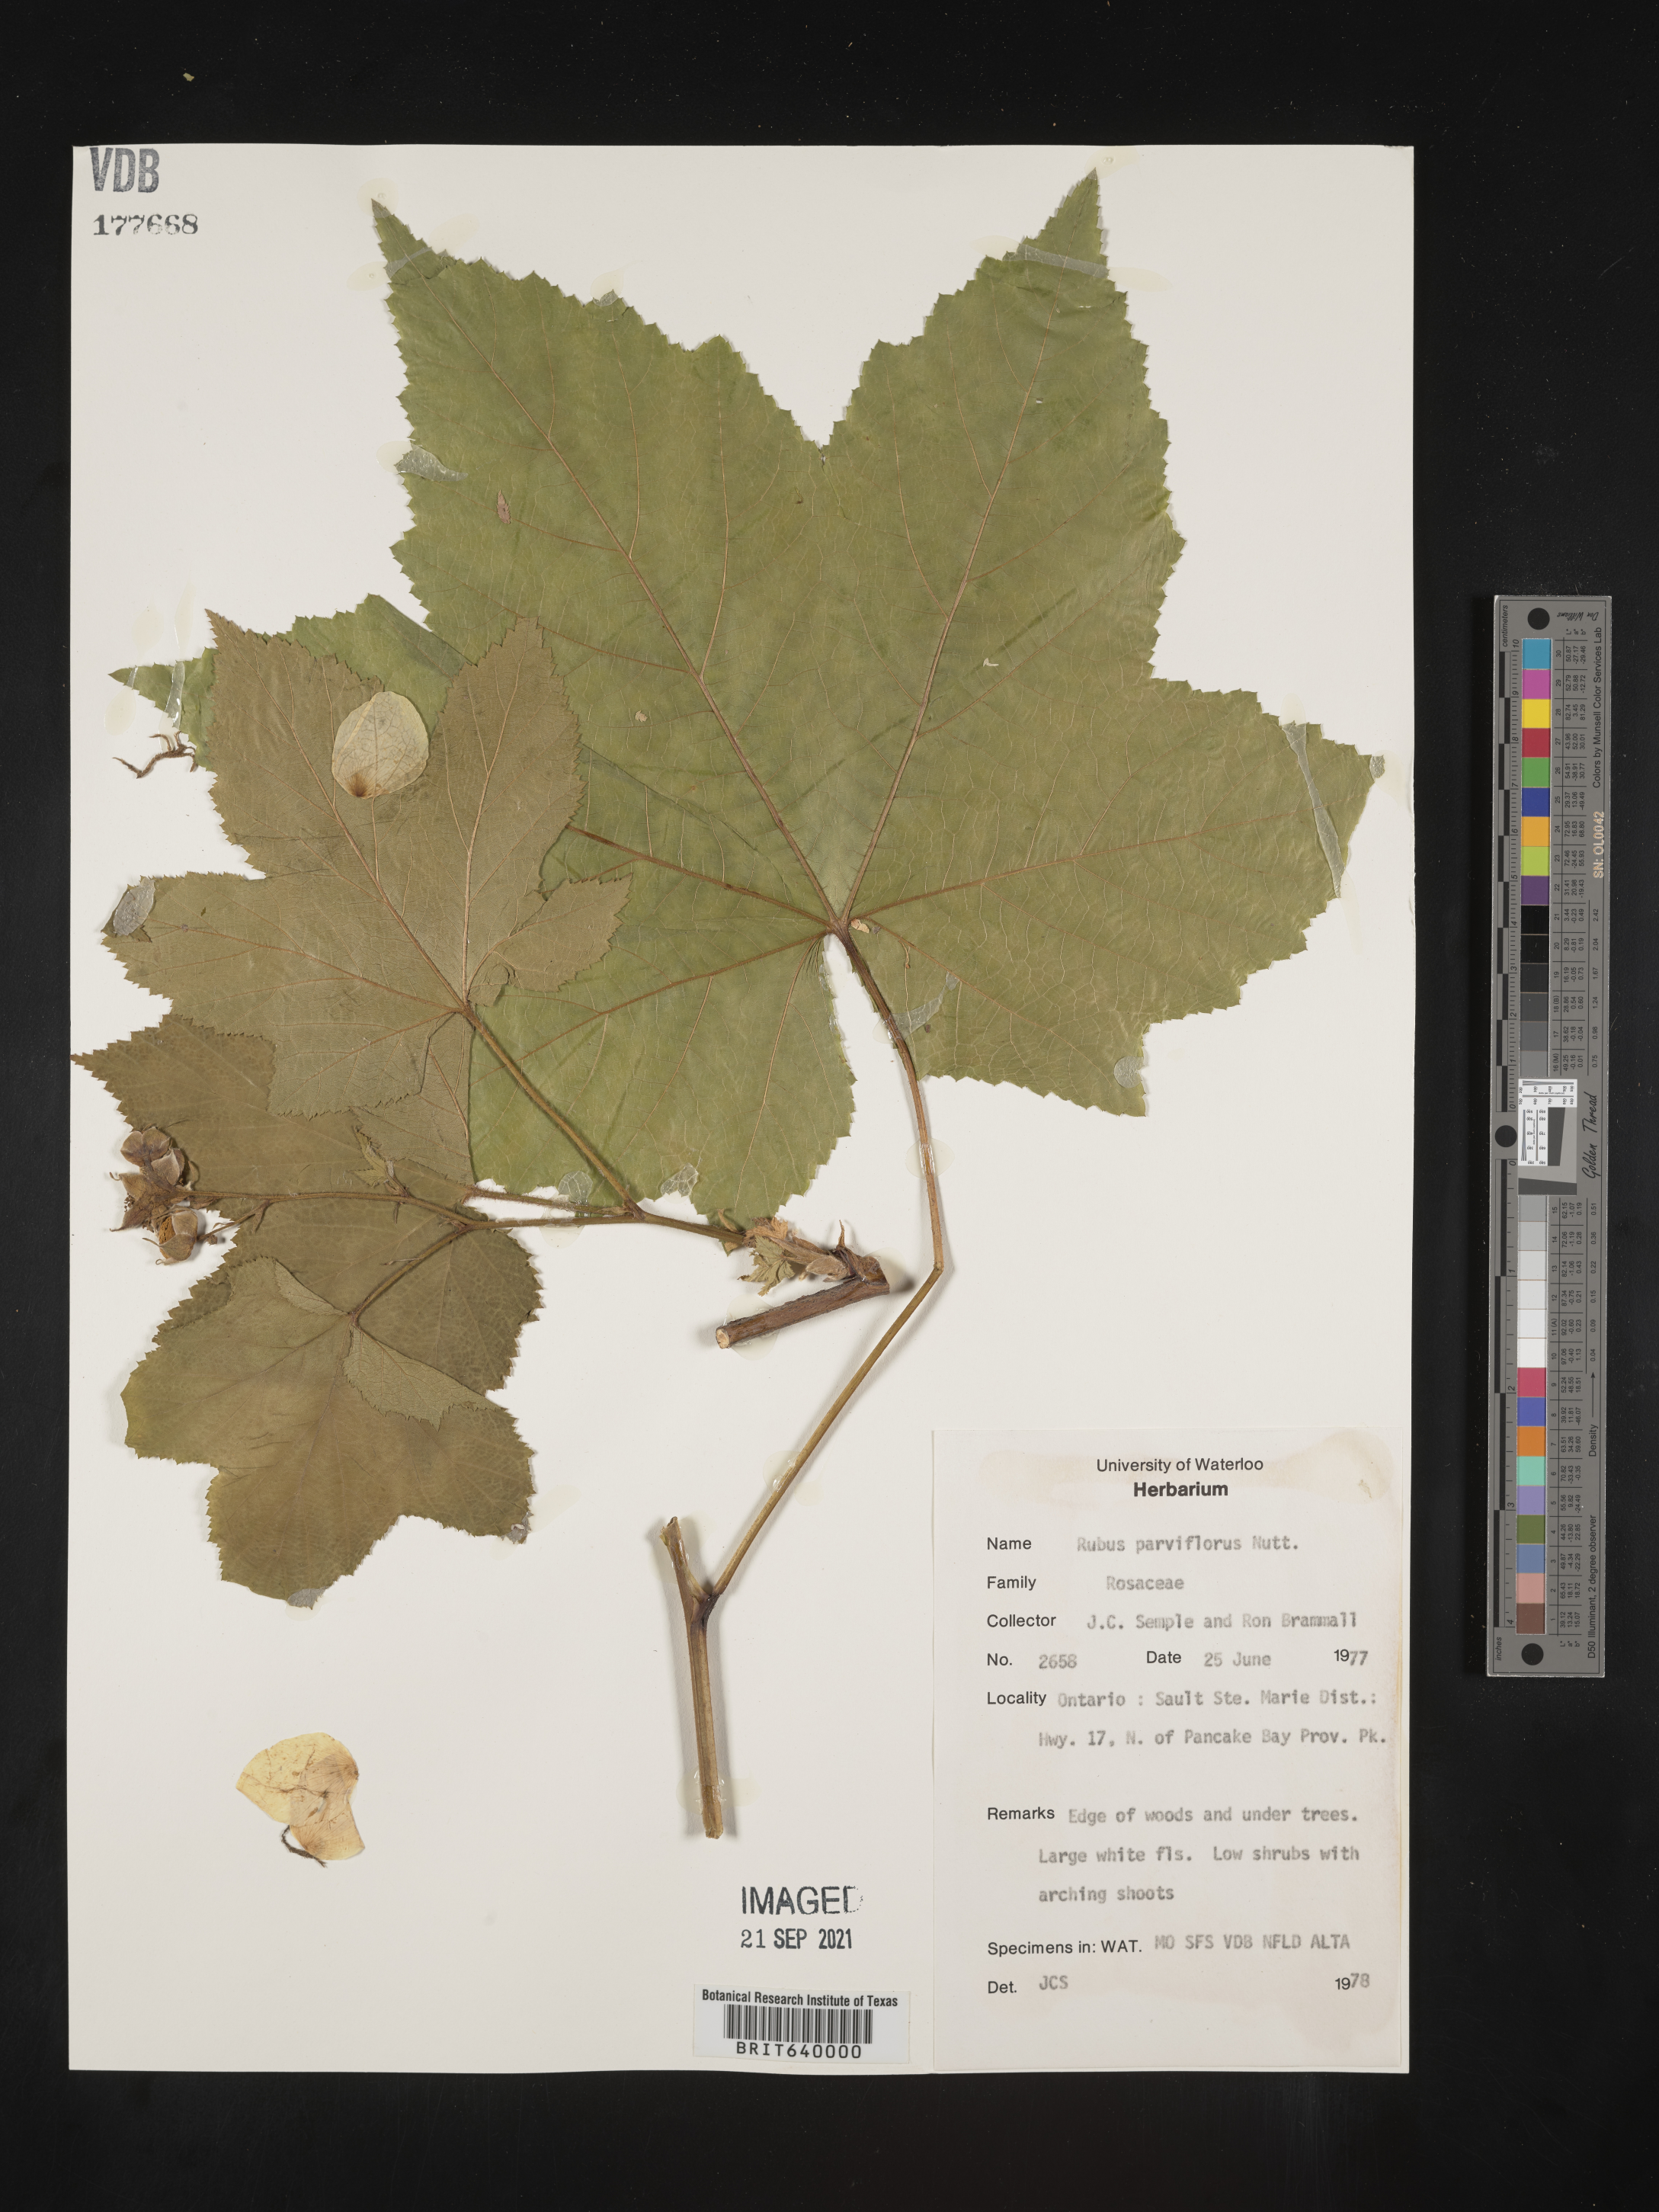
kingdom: Plantae
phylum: Tracheophyta
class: Magnoliopsida
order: Rosales
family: Rosaceae
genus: Rubus
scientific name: Rubus
